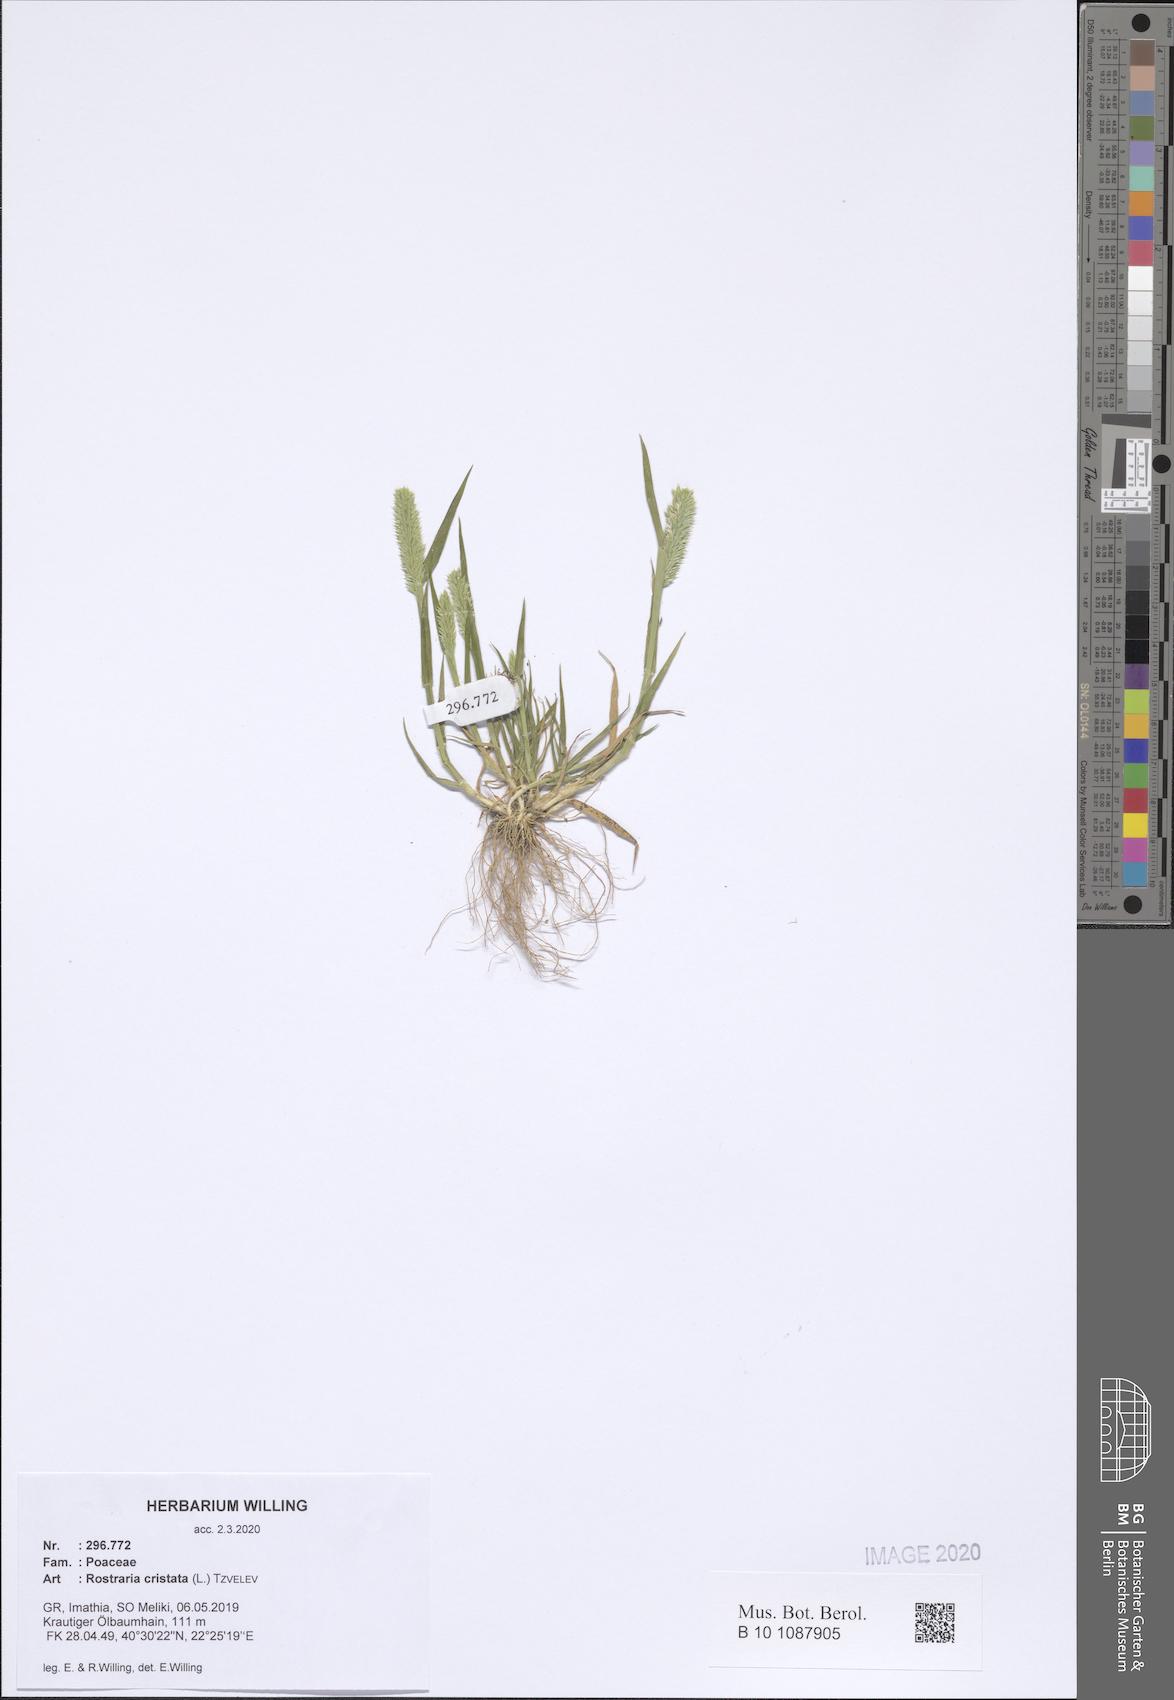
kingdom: Plantae
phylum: Tracheophyta
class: Liliopsida
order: Poales
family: Poaceae
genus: Rostraria
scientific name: Rostraria cristata
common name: Mediterranean hair-grass
